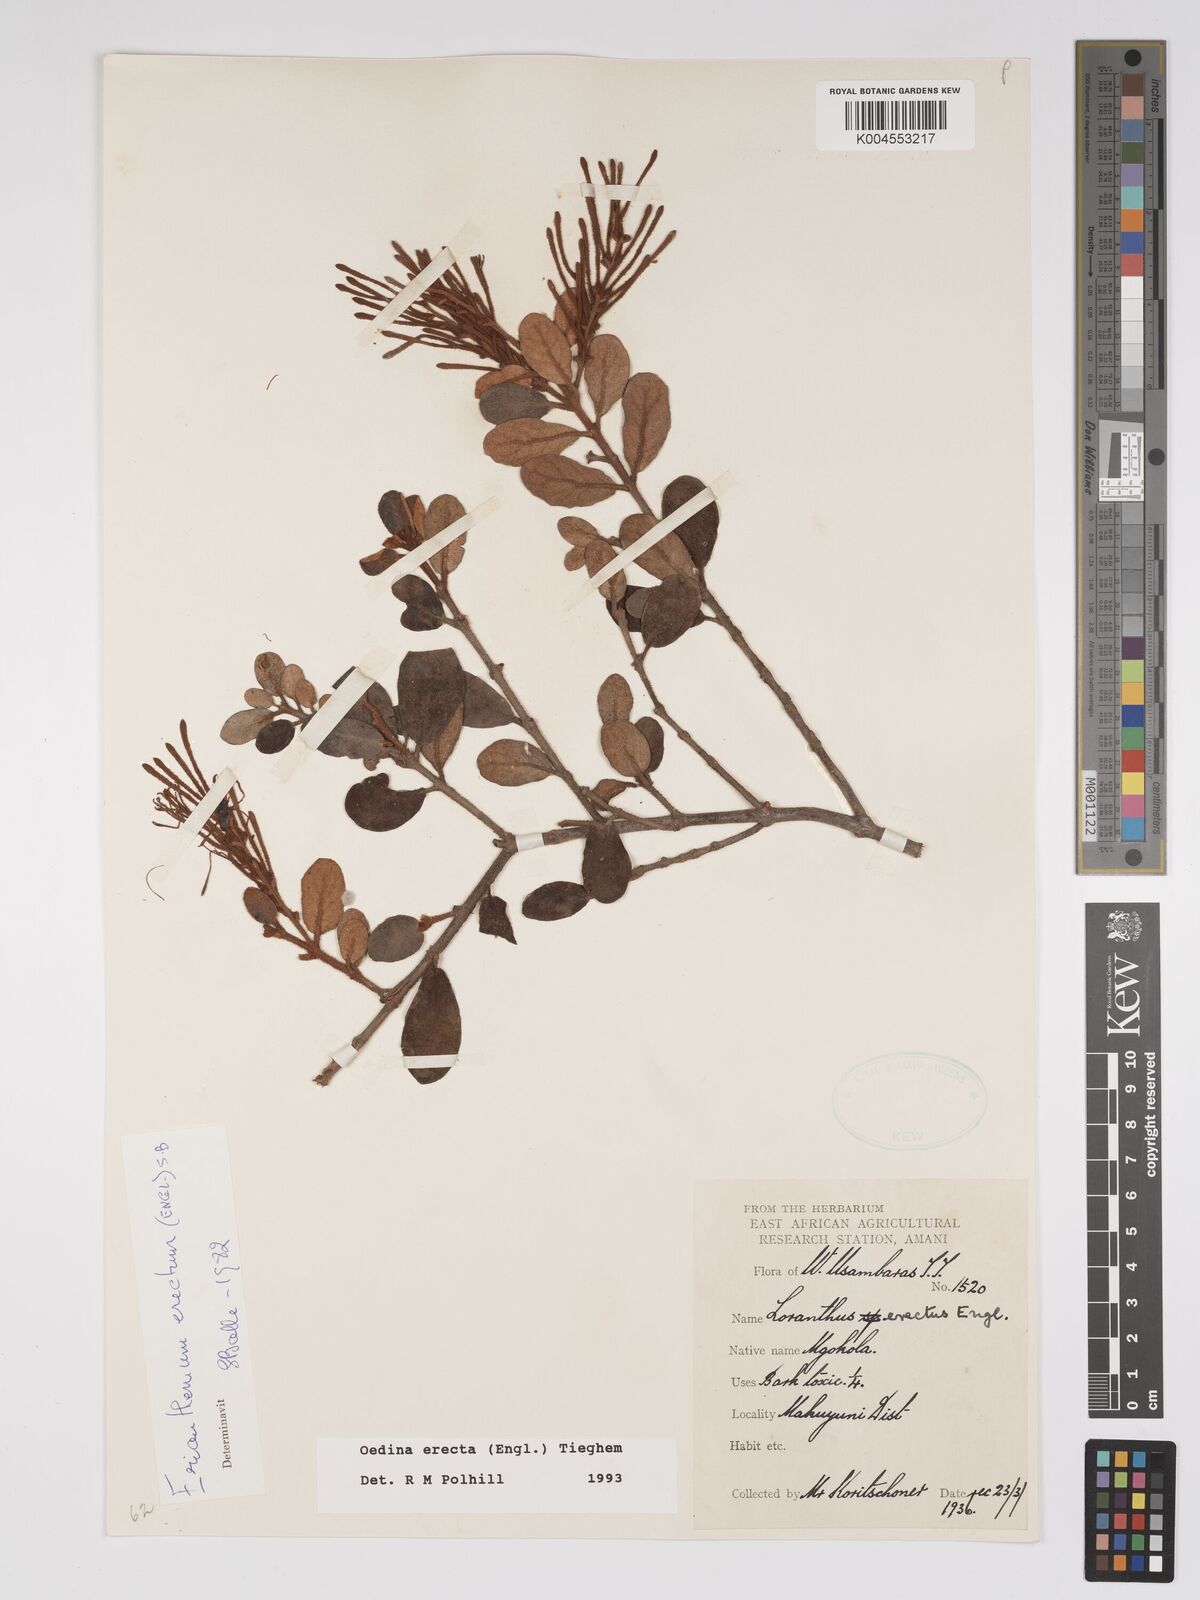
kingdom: Plantae
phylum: Tracheophyta
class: Magnoliopsida
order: Santalales
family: Loranthaceae
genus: Oedina
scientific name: Oedina erecta
